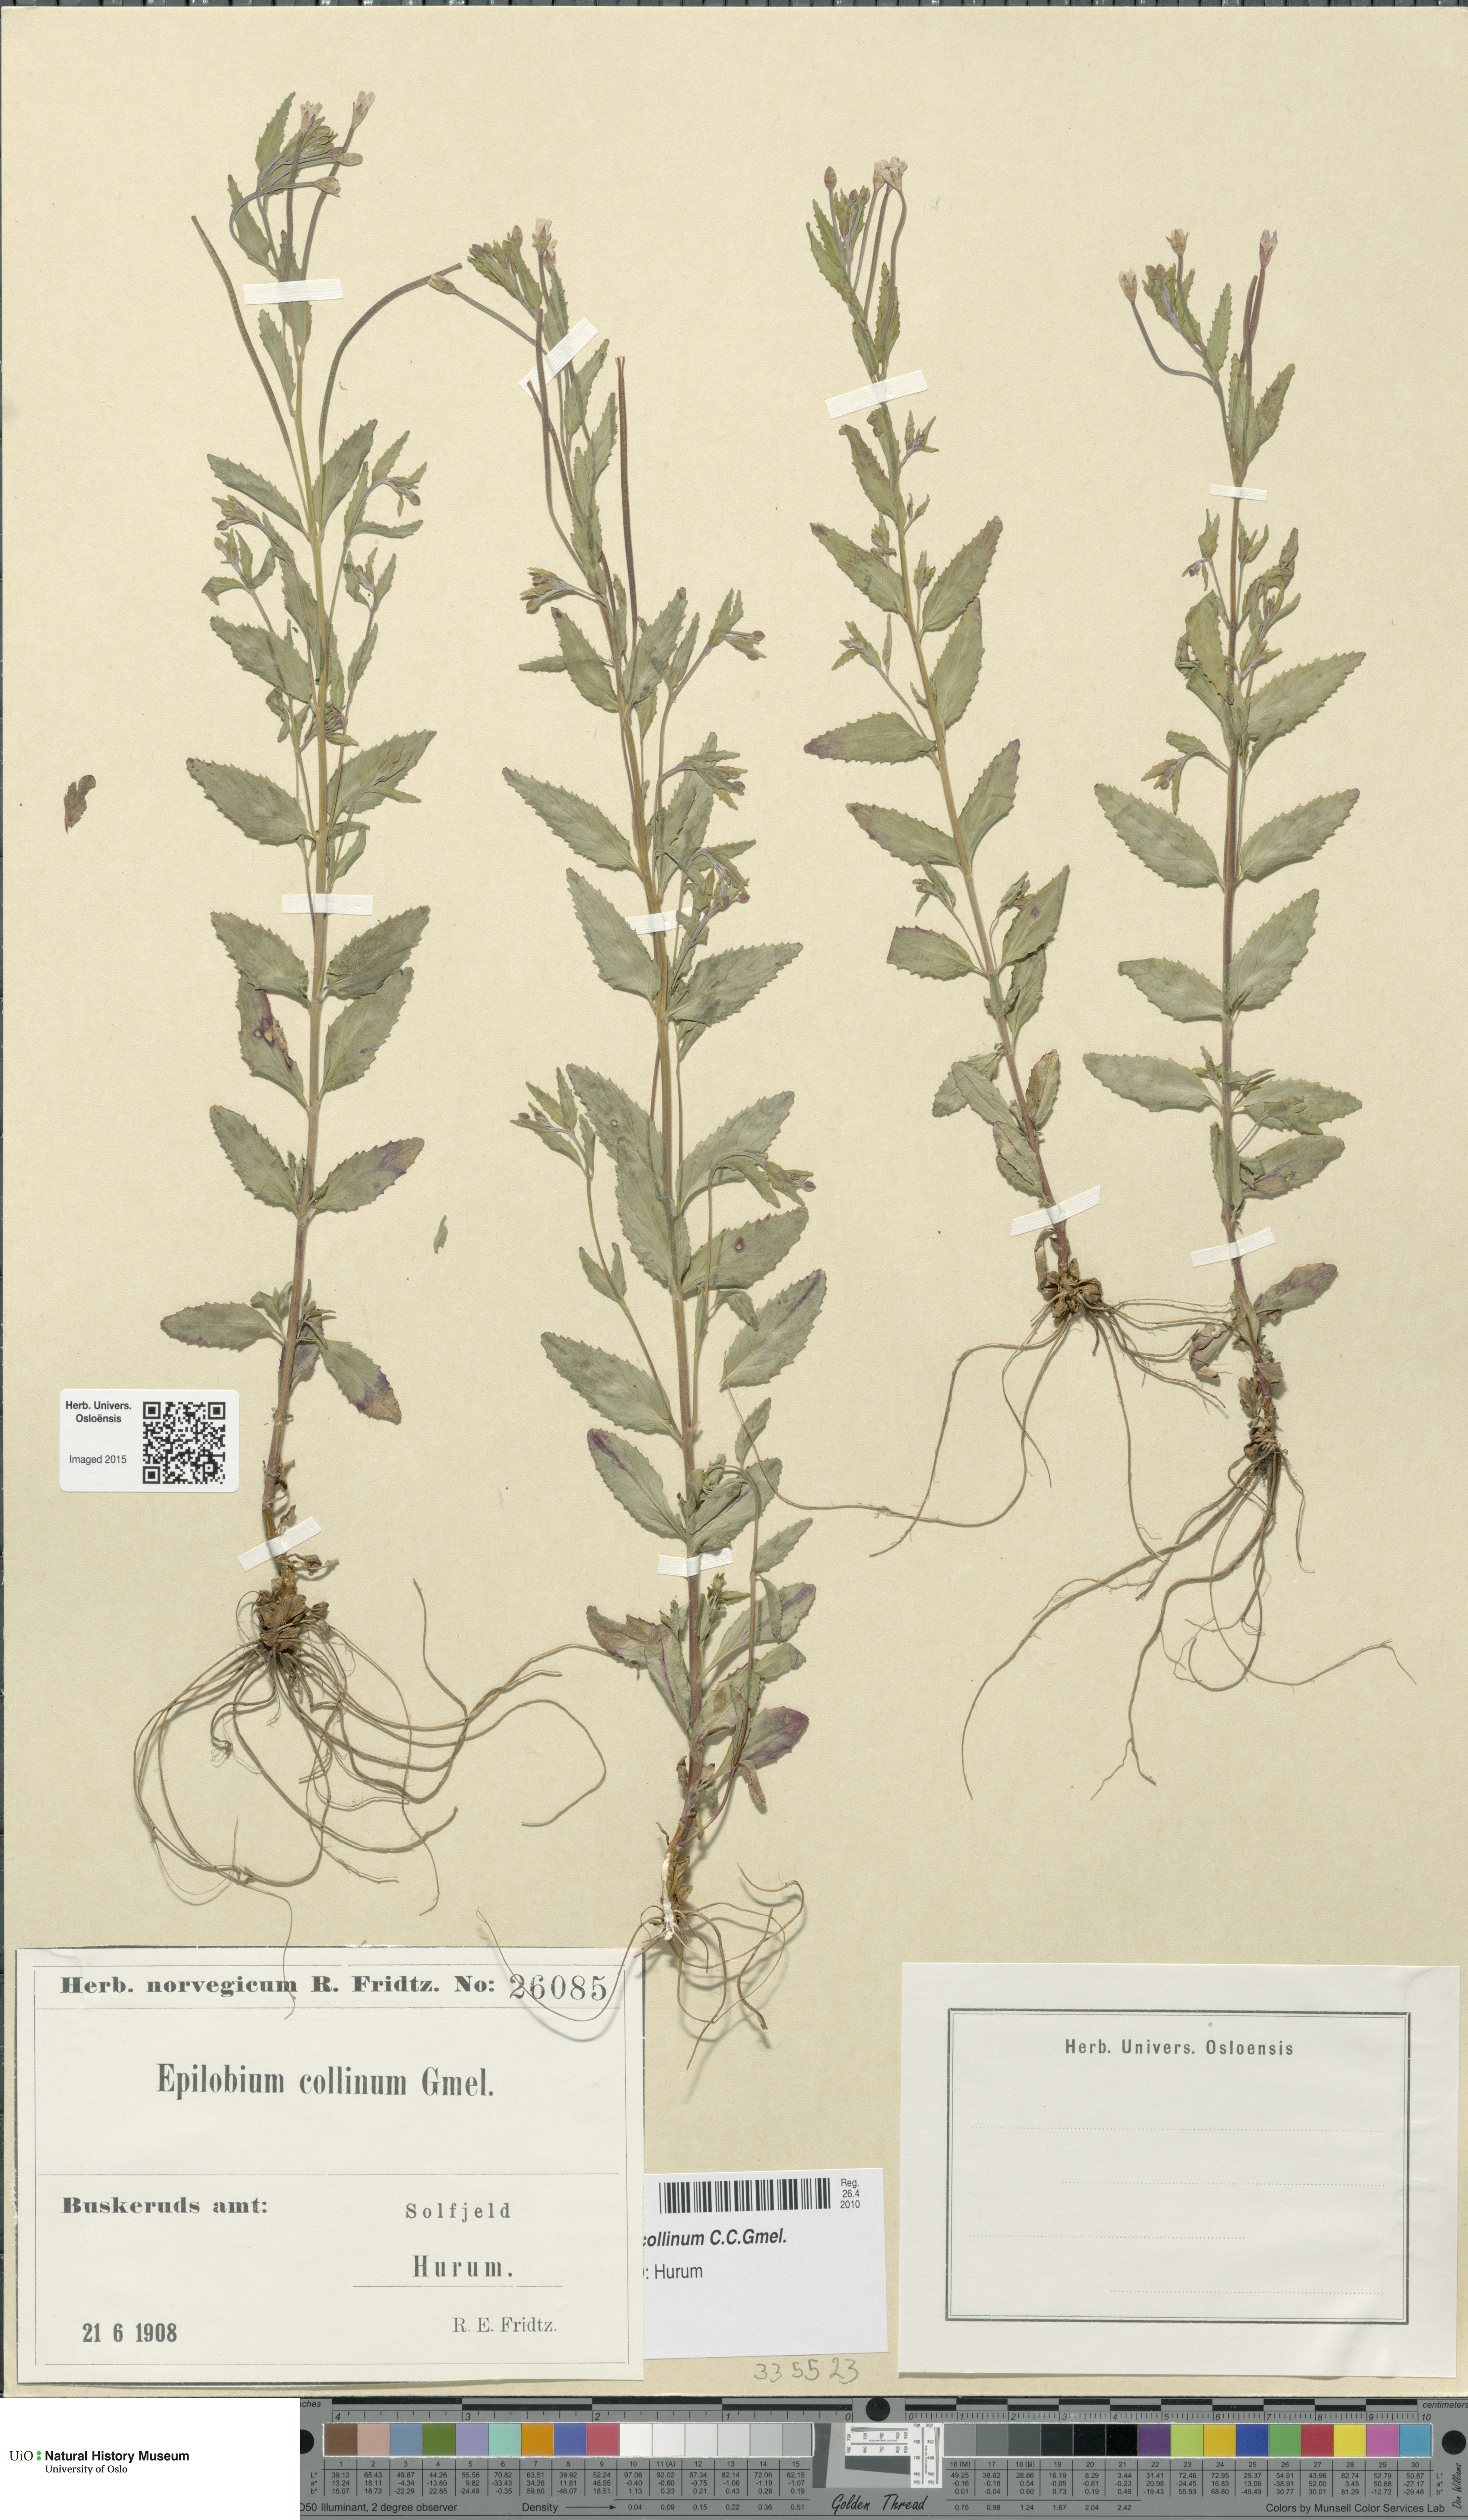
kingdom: Plantae
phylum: Tracheophyta
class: Magnoliopsida
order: Myrtales
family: Onagraceae
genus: Epilobium
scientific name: Epilobium collinum
